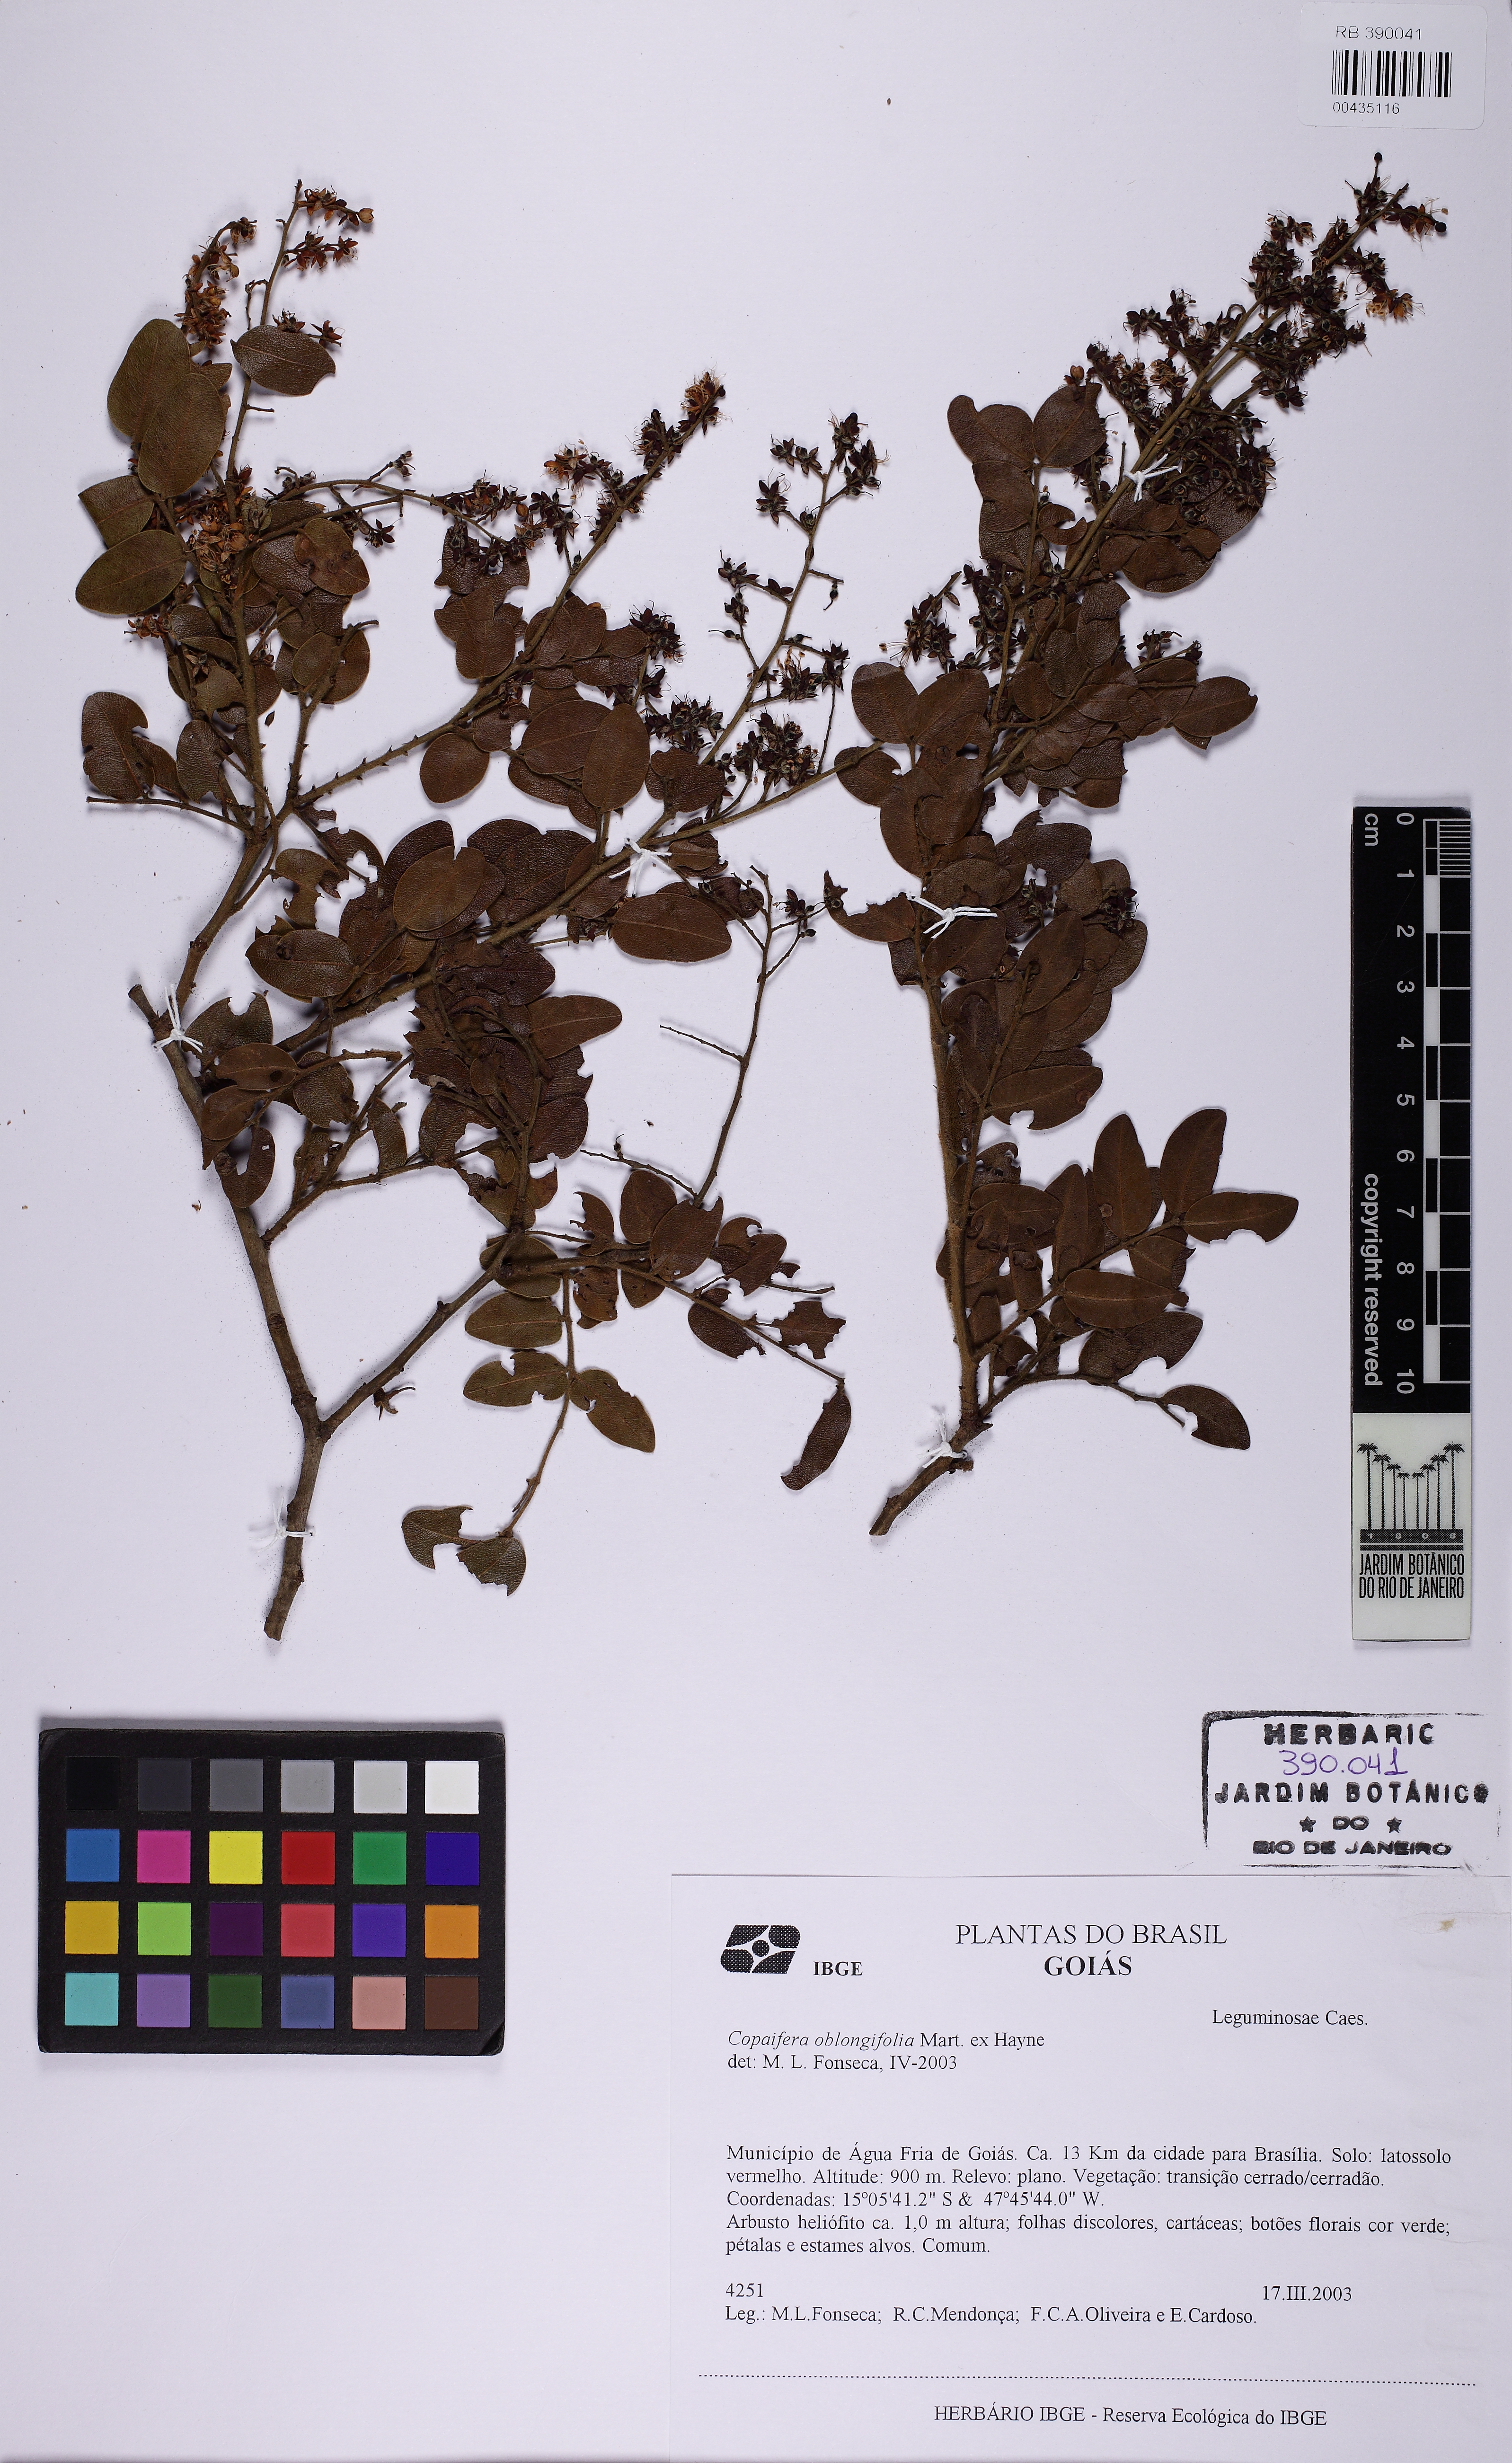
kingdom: Plantae
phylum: Tracheophyta
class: Magnoliopsida
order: Fabales
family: Fabaceae
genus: Copaifera
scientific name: Copaifera oblongifolia
